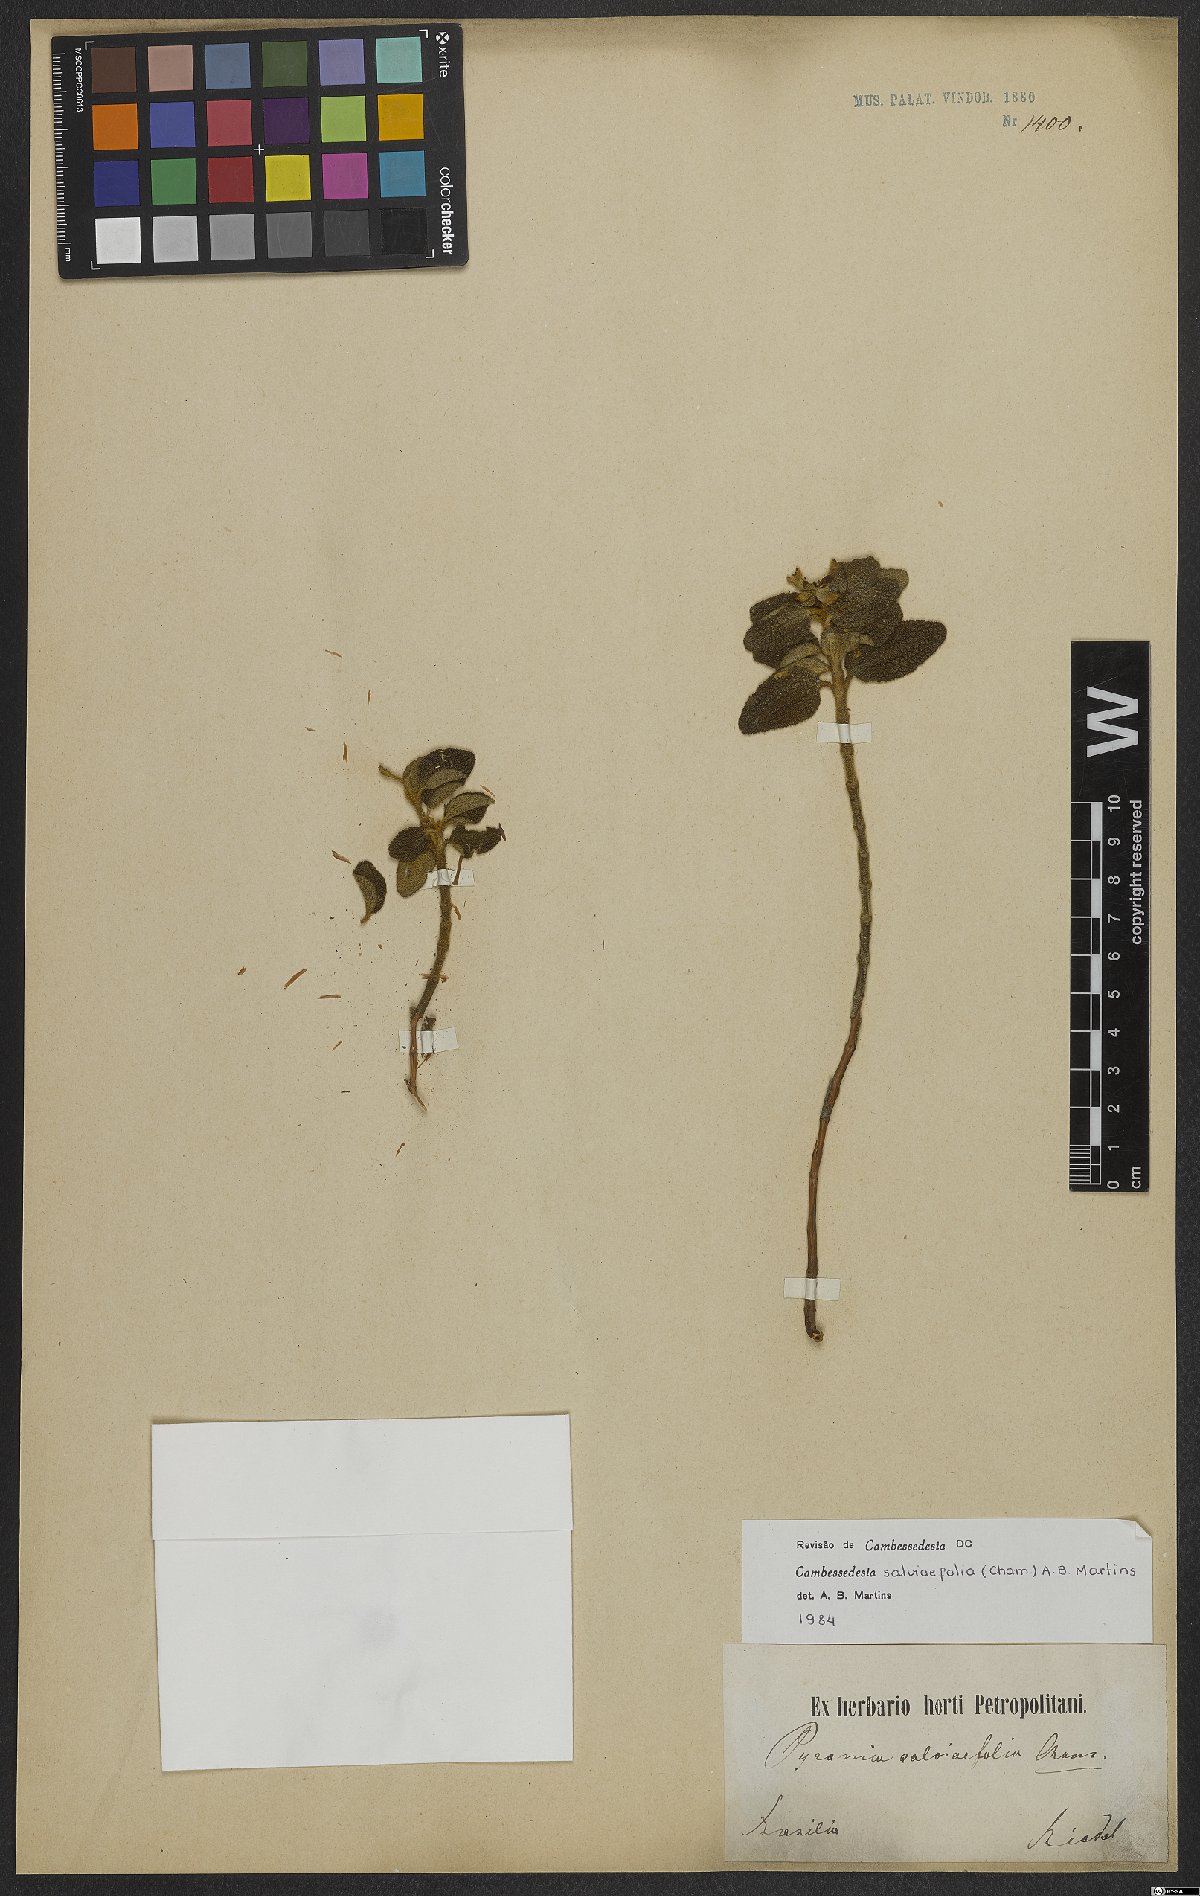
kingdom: Plantae
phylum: Tracheophyta
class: Magnoliopsida
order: Myrtales
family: Melastomataceae
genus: Cambessedesia
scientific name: Cambessedesia salviifolia
